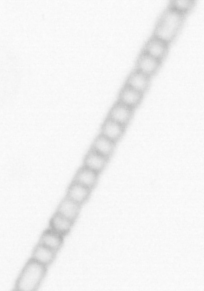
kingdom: Chromista
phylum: Ochrophyta
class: Bacillariophyceae
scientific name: Bacillariophyceae
